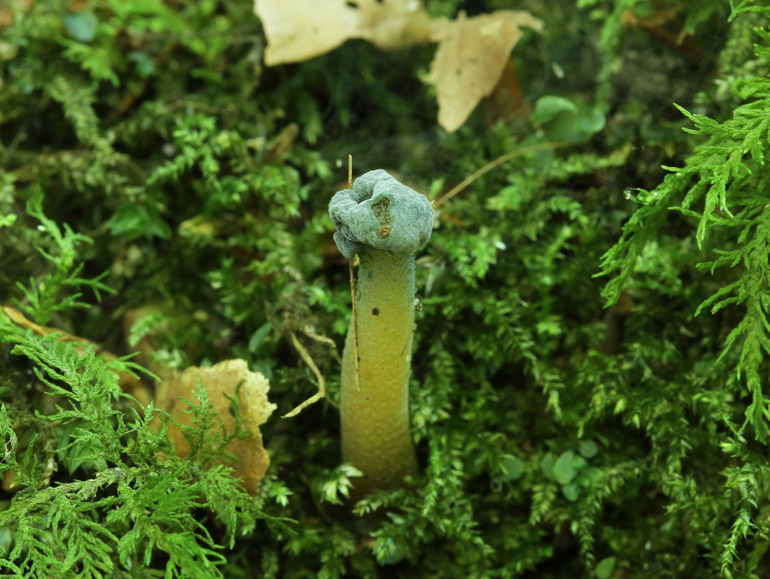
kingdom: Fungi
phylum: Ascomycota
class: Sordariomycetes
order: Hypocreales
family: Hypocreaceae
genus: Hypomyces
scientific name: Hypomyces leotiicola
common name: ravsvamp-snylteskorpe
